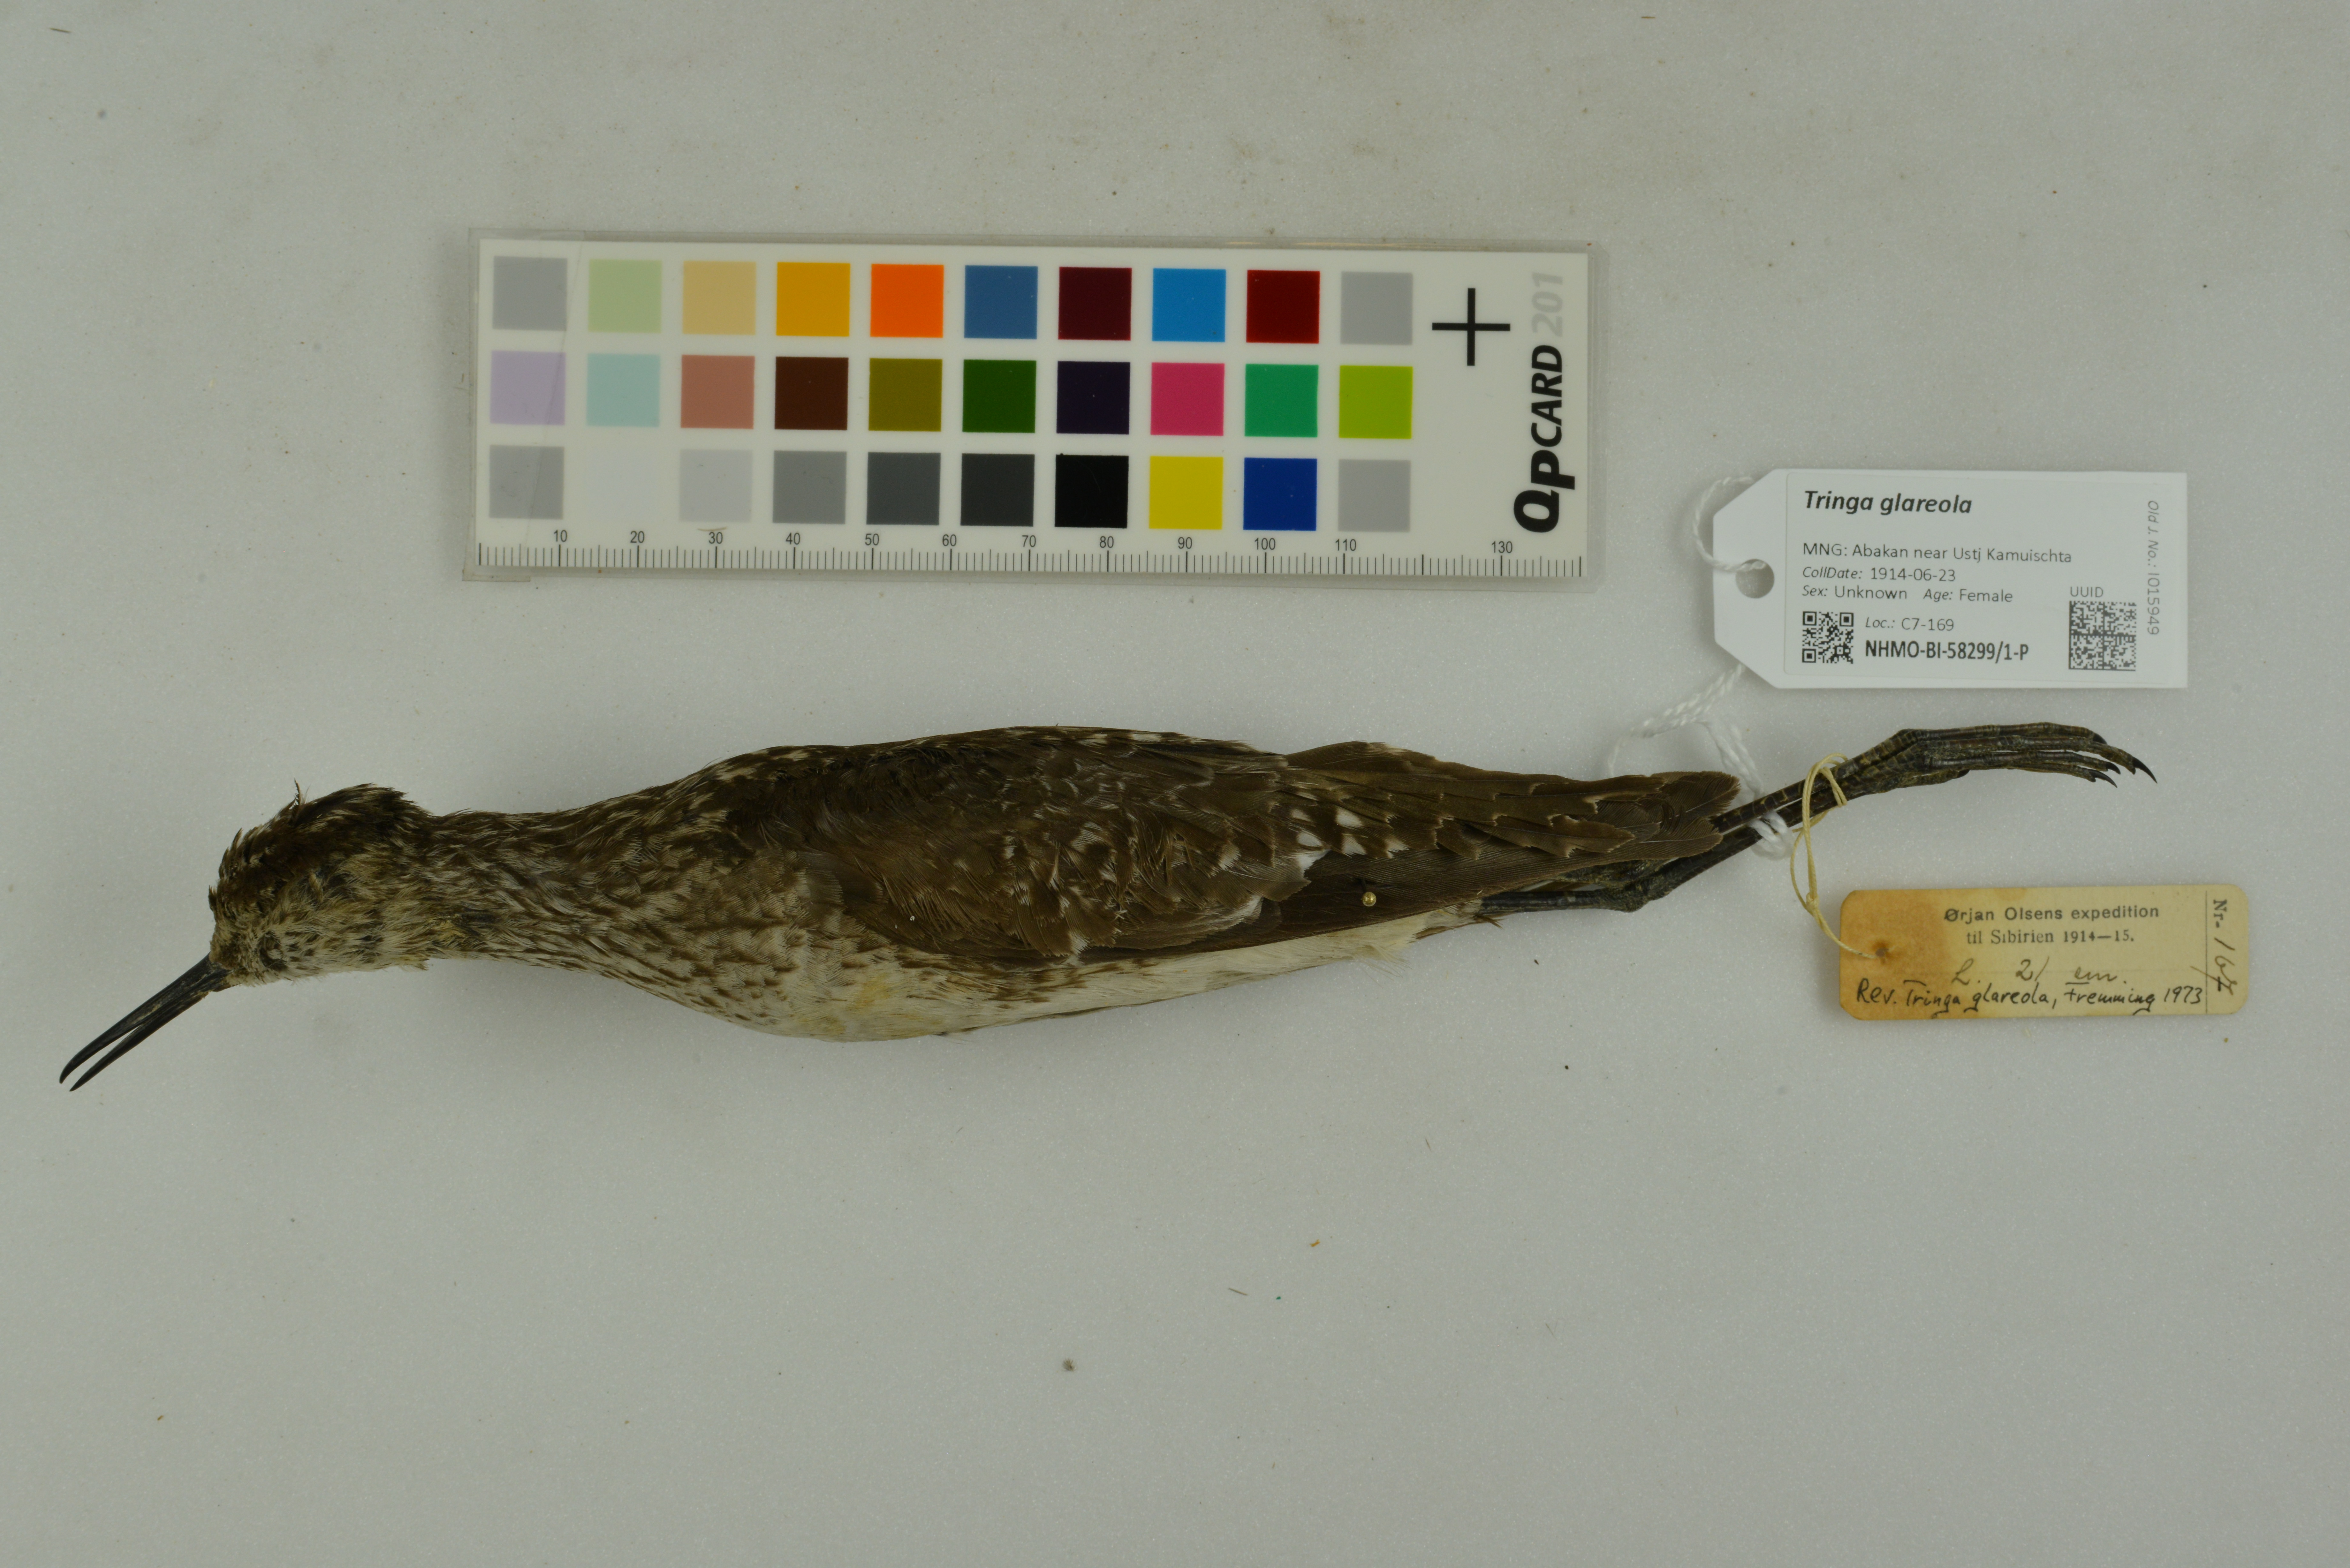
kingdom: Animalia
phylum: Chordata
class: Aves
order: Charadriiformes
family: Scolopacidae
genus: Tringa
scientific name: Tringa glareola
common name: Wood sandpiper
